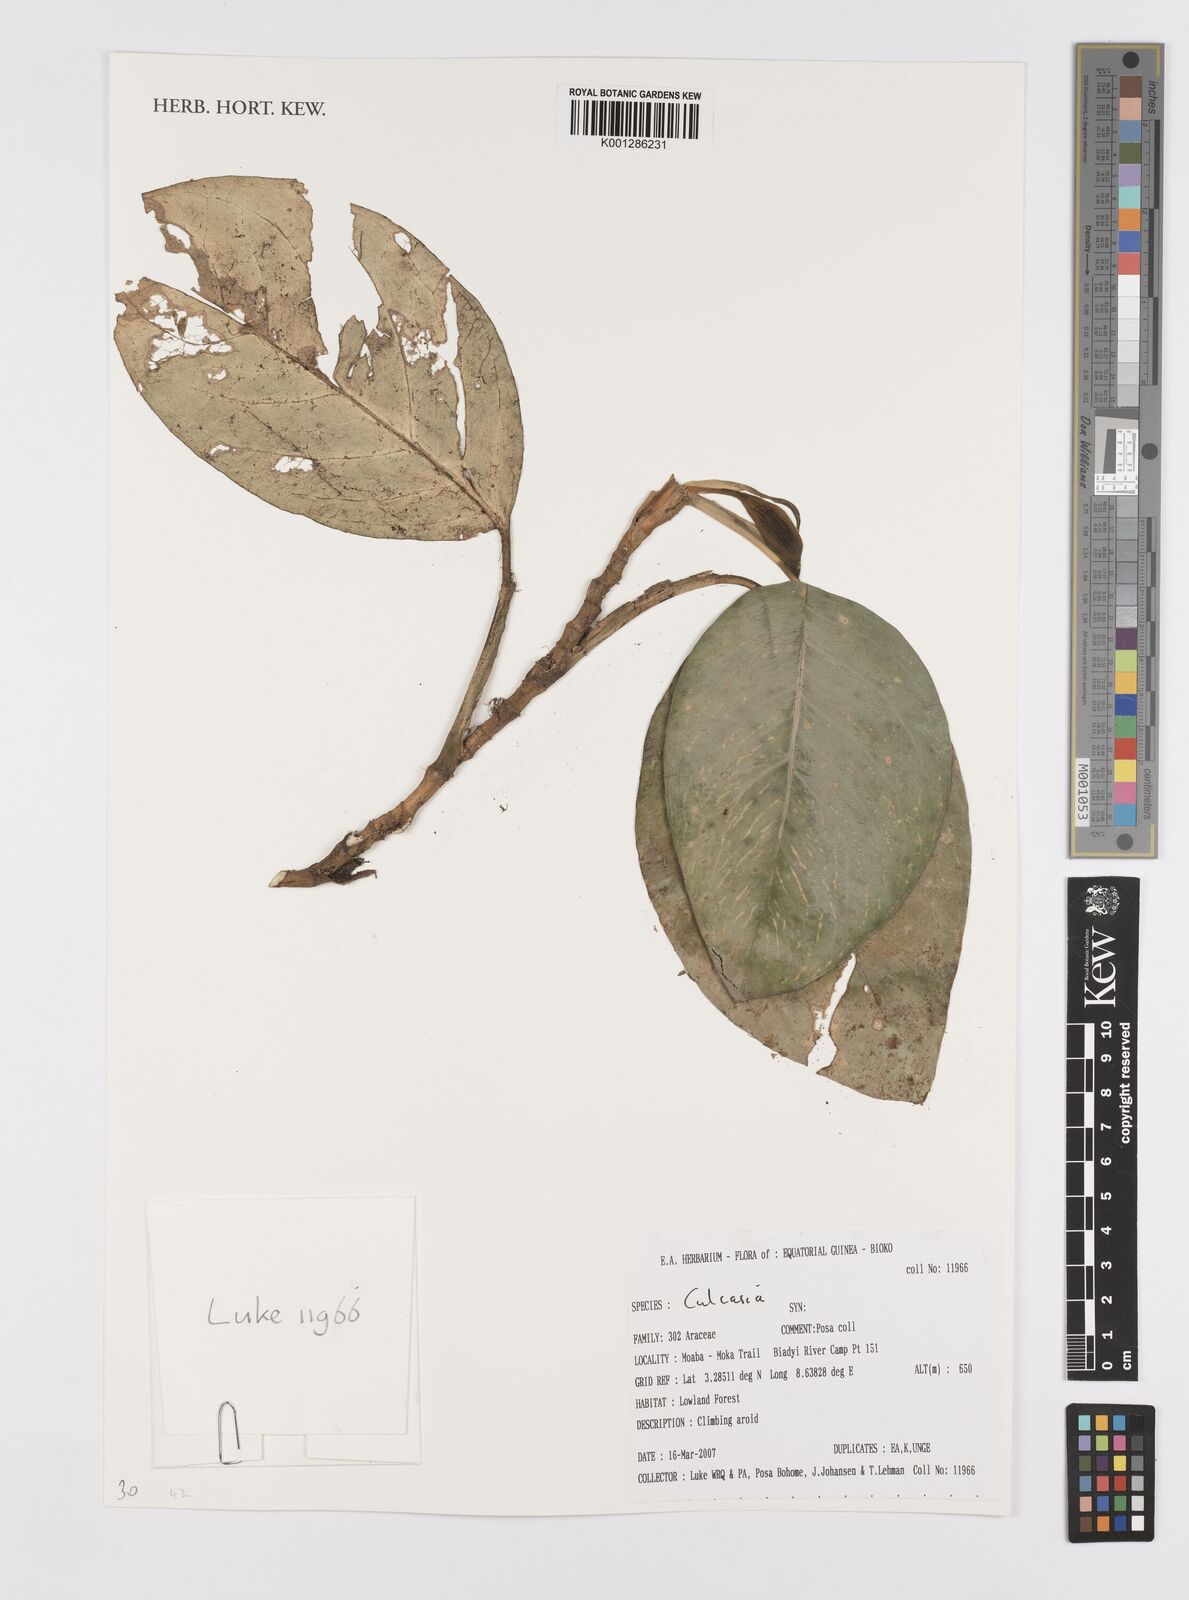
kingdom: Plantae
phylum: Tracheophyta
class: Liliopsida
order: Alismatales
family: Araceae
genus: Culcasia
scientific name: Culcasia
